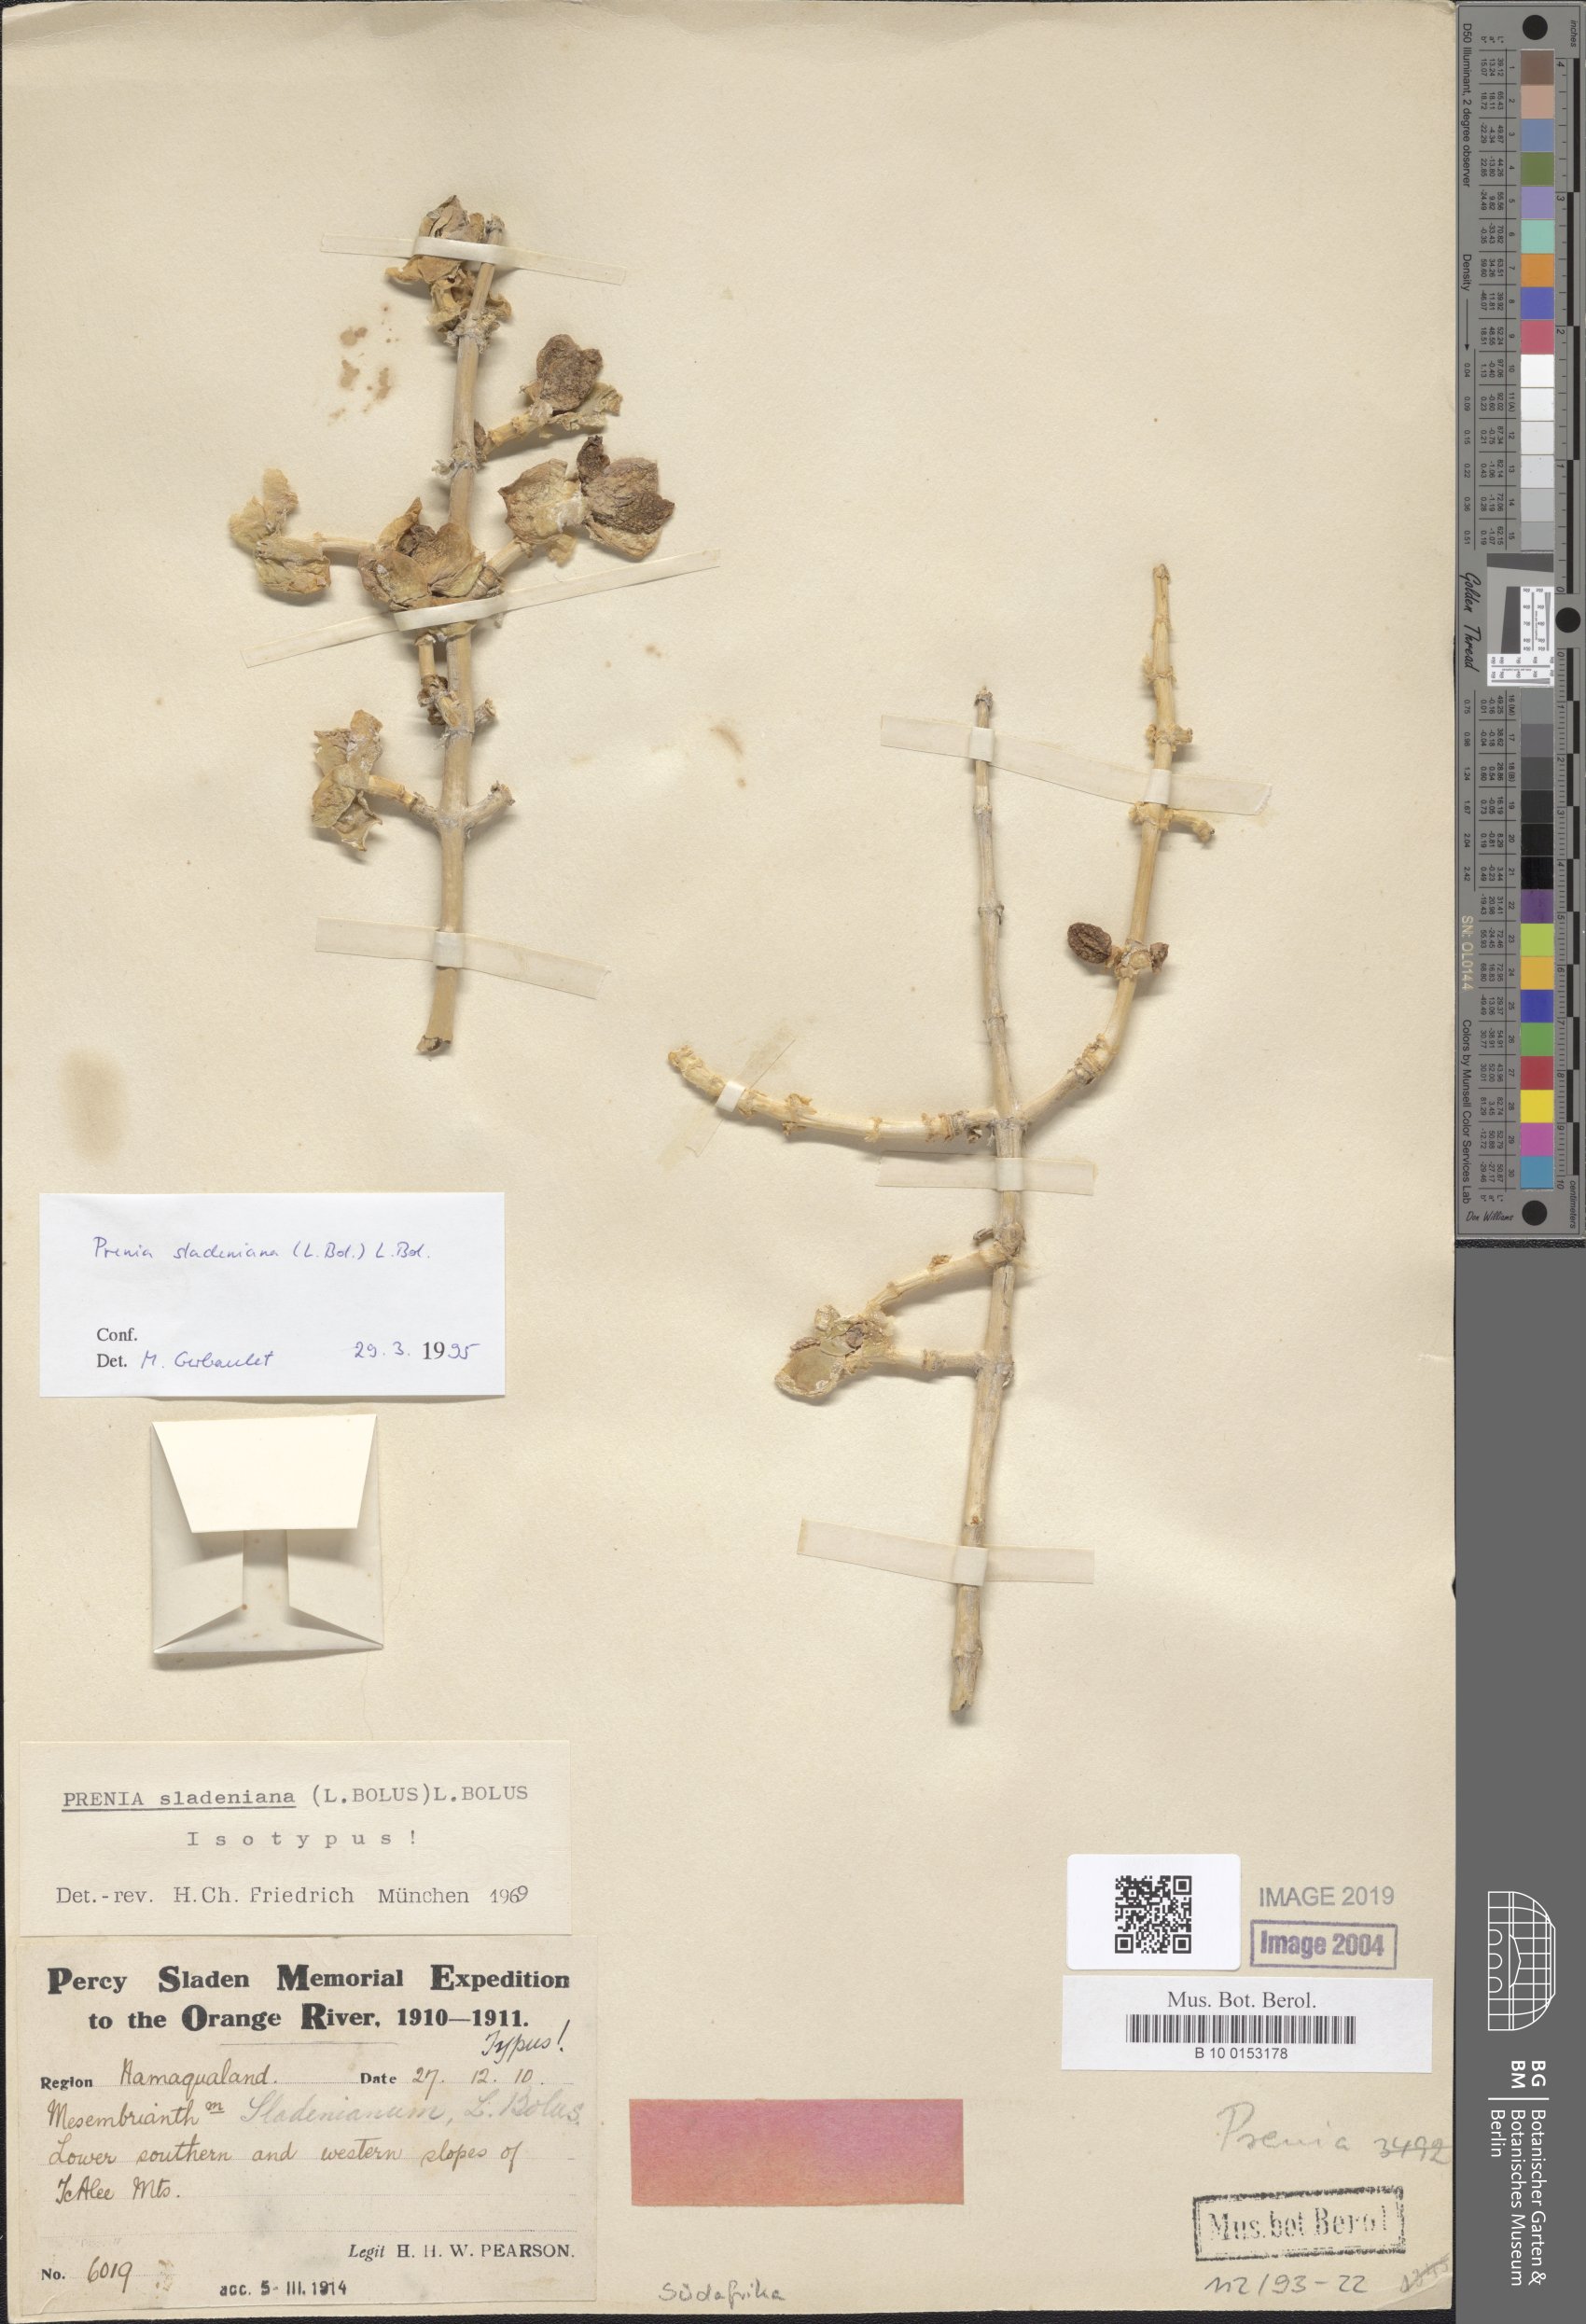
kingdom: Plantae
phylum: Tracheophyta
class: Magnoliopsida
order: Caryophyllales
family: Aizoaceae
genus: Mesembryanthemum
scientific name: Mesembryanthemum sladenianum
